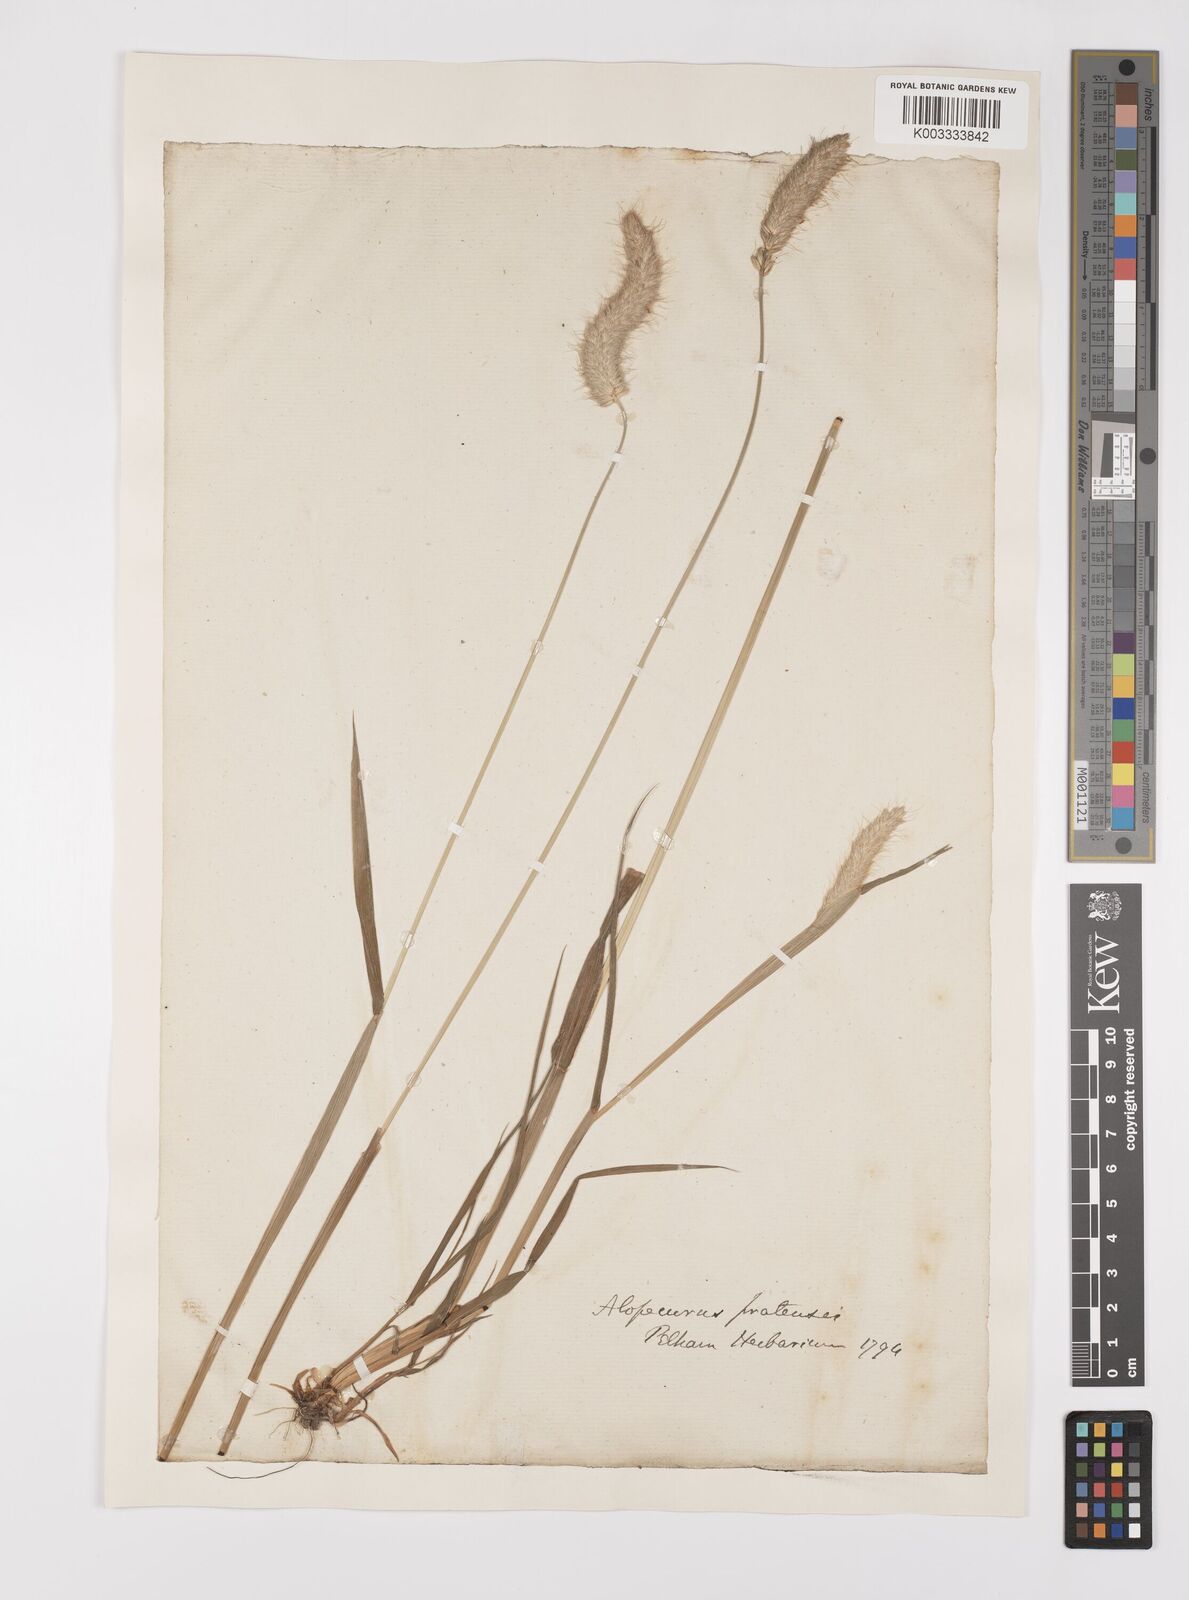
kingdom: Plantae
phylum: Tracheophyta
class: Liliopsida
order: Poales
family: Poaceae
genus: Alopecurus
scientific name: Alopecurus pratensis
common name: Meadow foxtail
